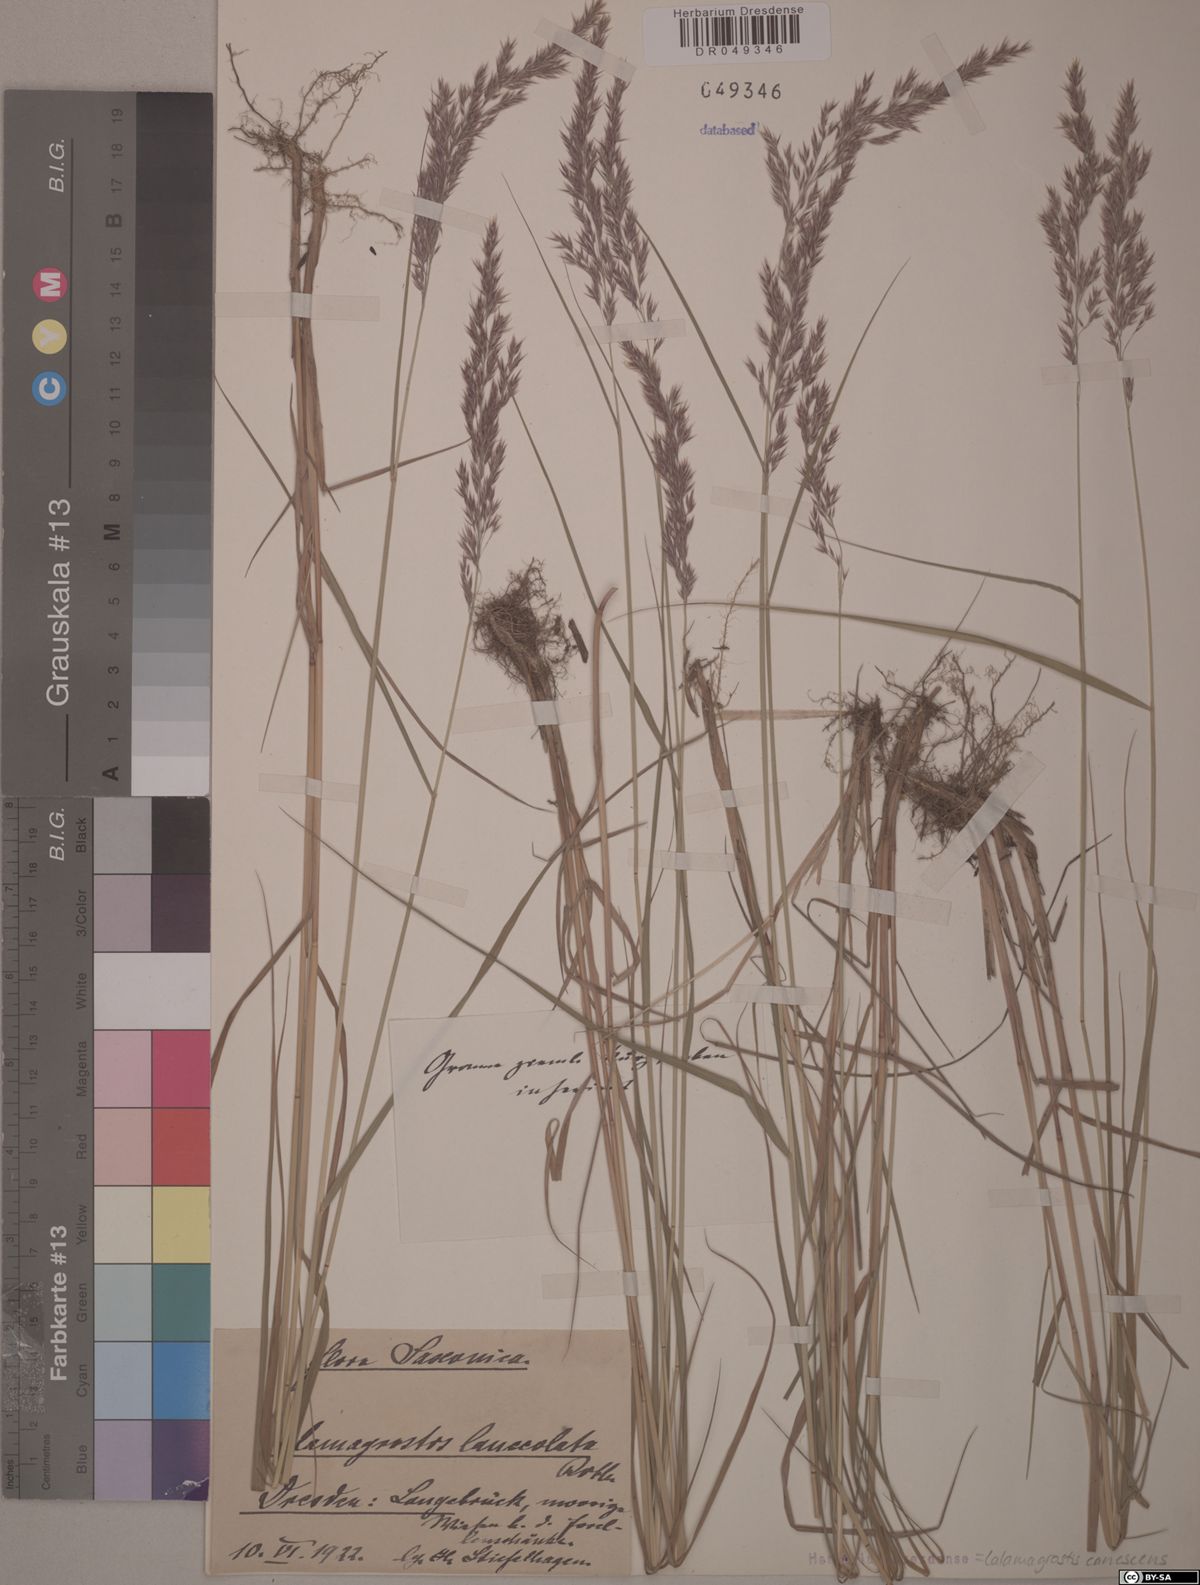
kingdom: Plantae
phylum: Tracheophyta
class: Liliopsida
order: Poales
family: Poaceae
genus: Calamagrostis
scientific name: Calamagrostis canescens
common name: Purple small-reed
